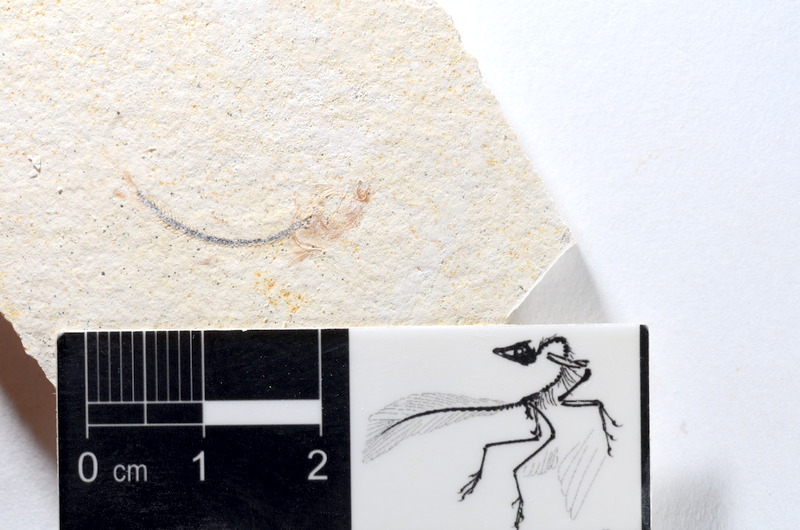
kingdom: Animalia
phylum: Chordata
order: Salmoniformes
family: Orthogonikleithridae
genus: Orthogonikleithrus
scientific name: Orthogonikleithrus hoelli
